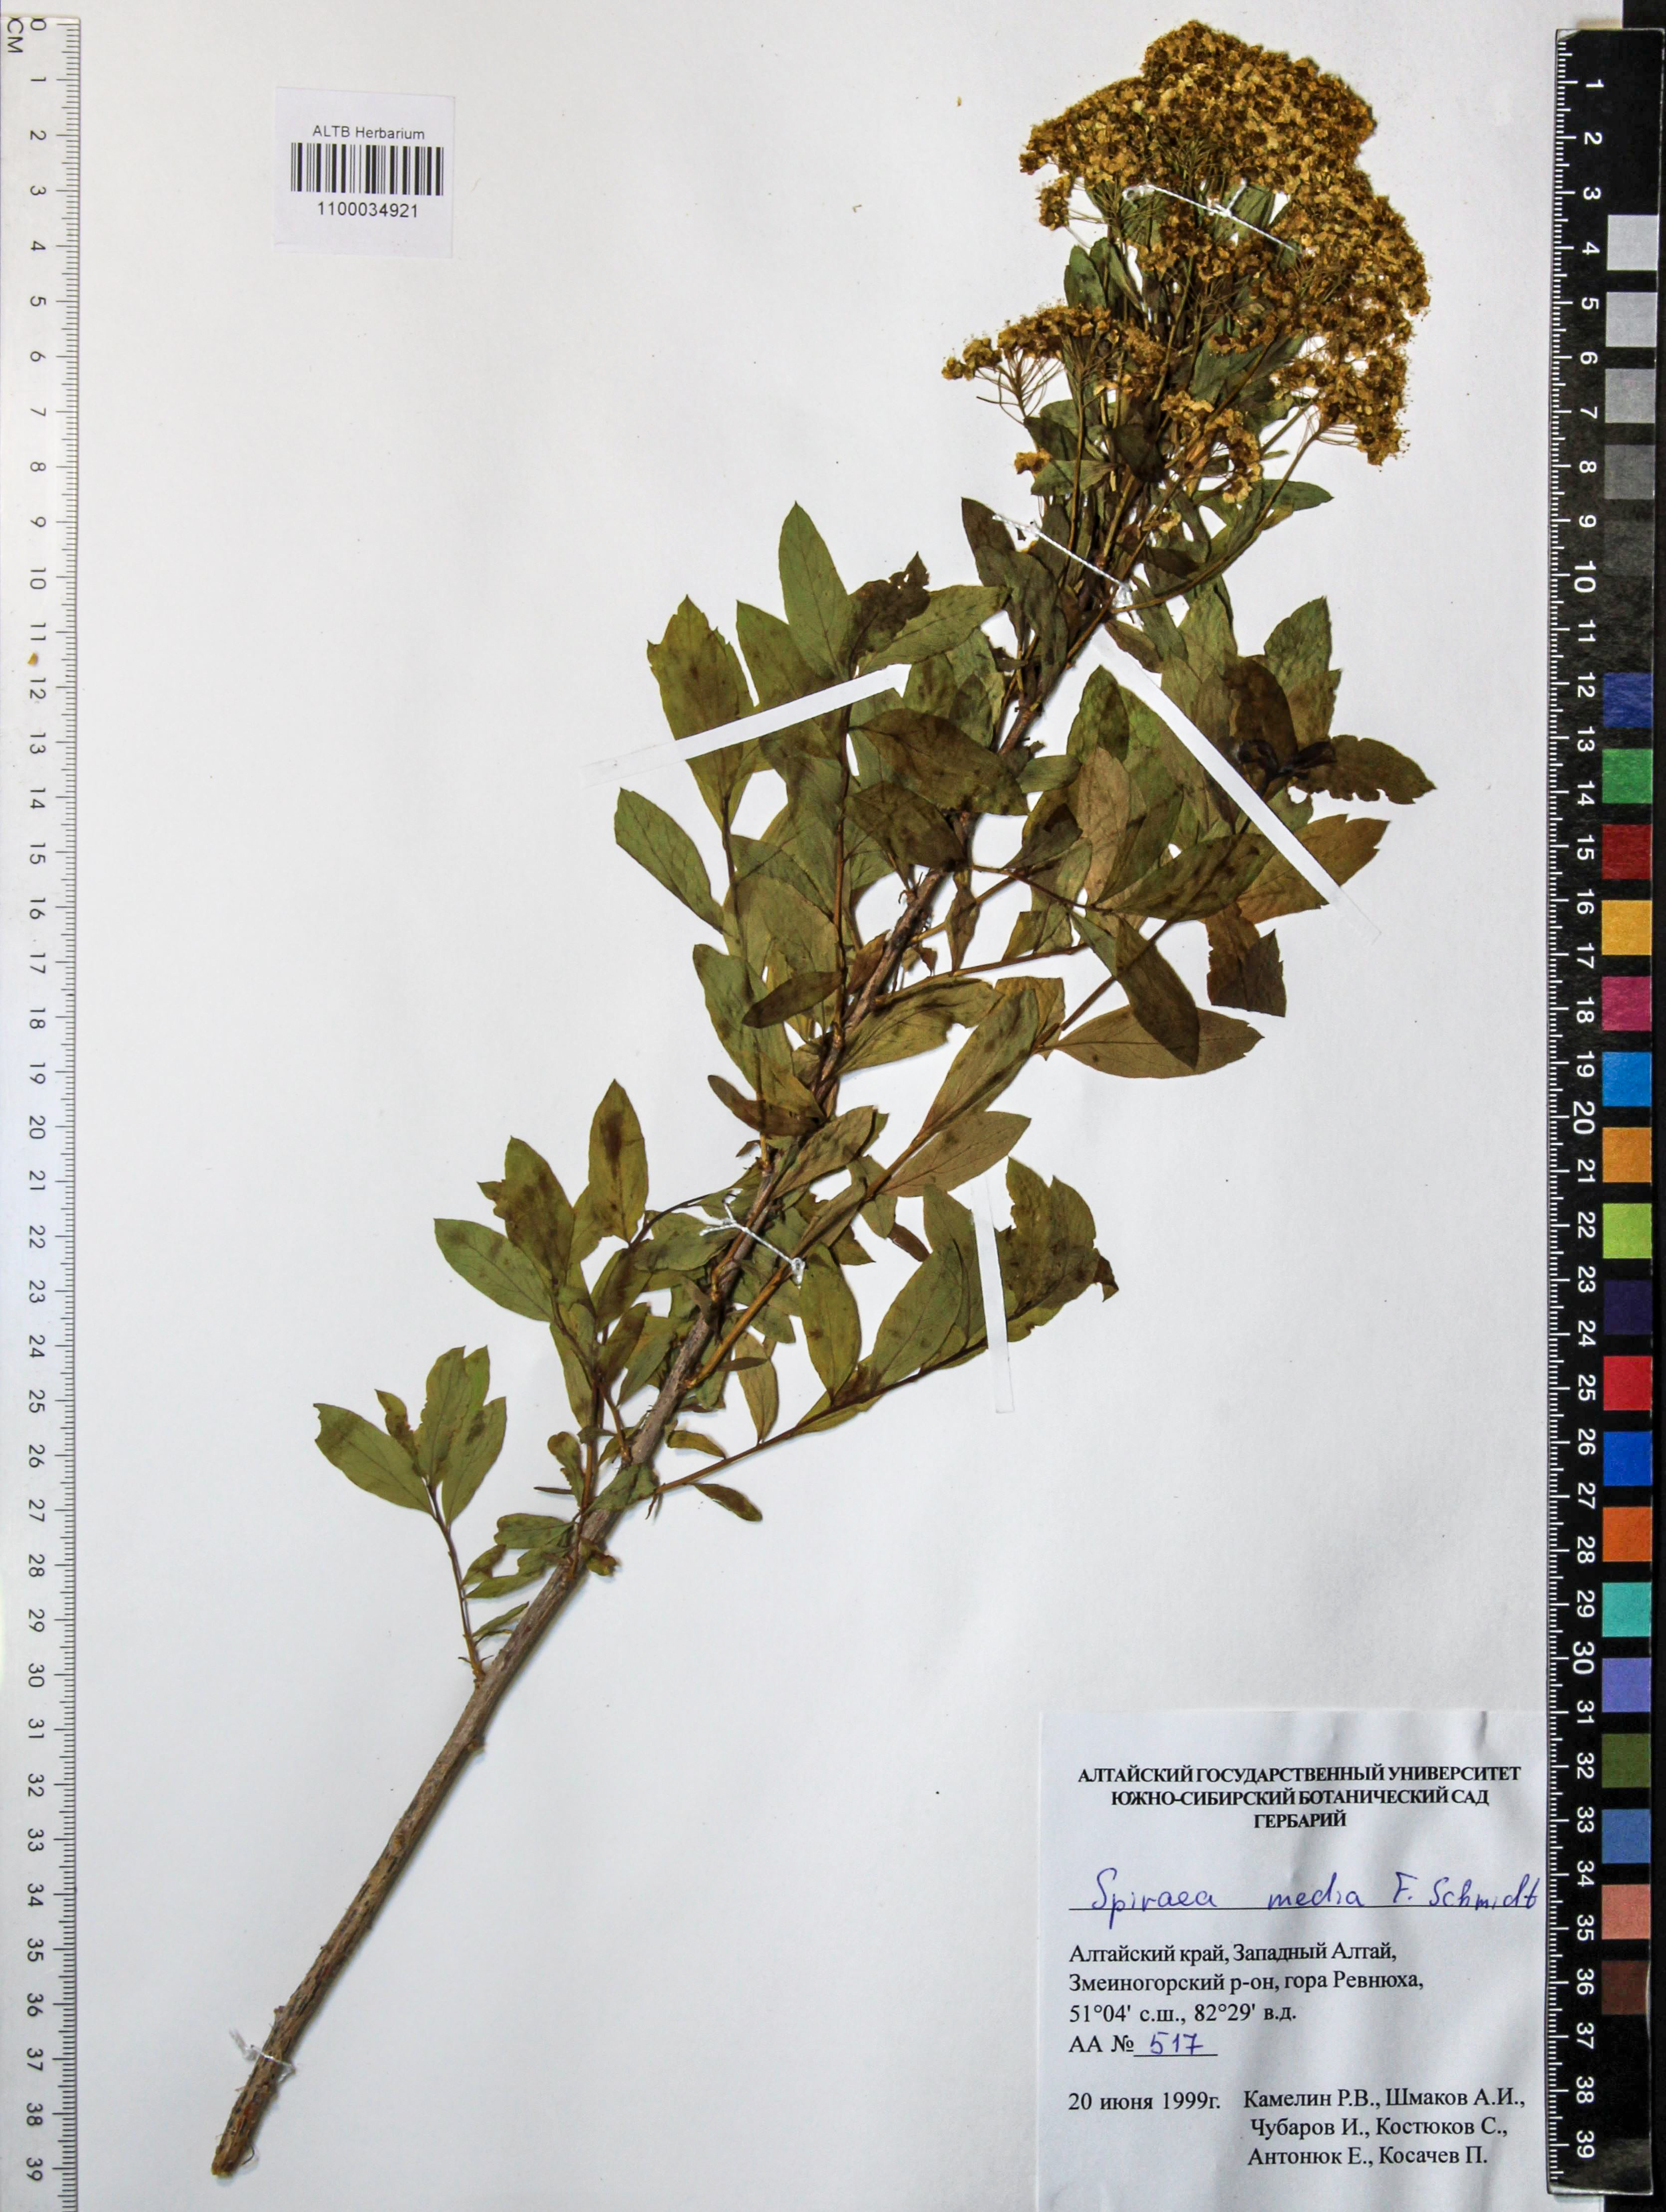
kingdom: Plantae
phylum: Tracheophyta
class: Magnoliopsida
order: Rosales
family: Rosaceae
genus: Spiraea
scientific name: Spiraea media
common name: Russian spiraea
